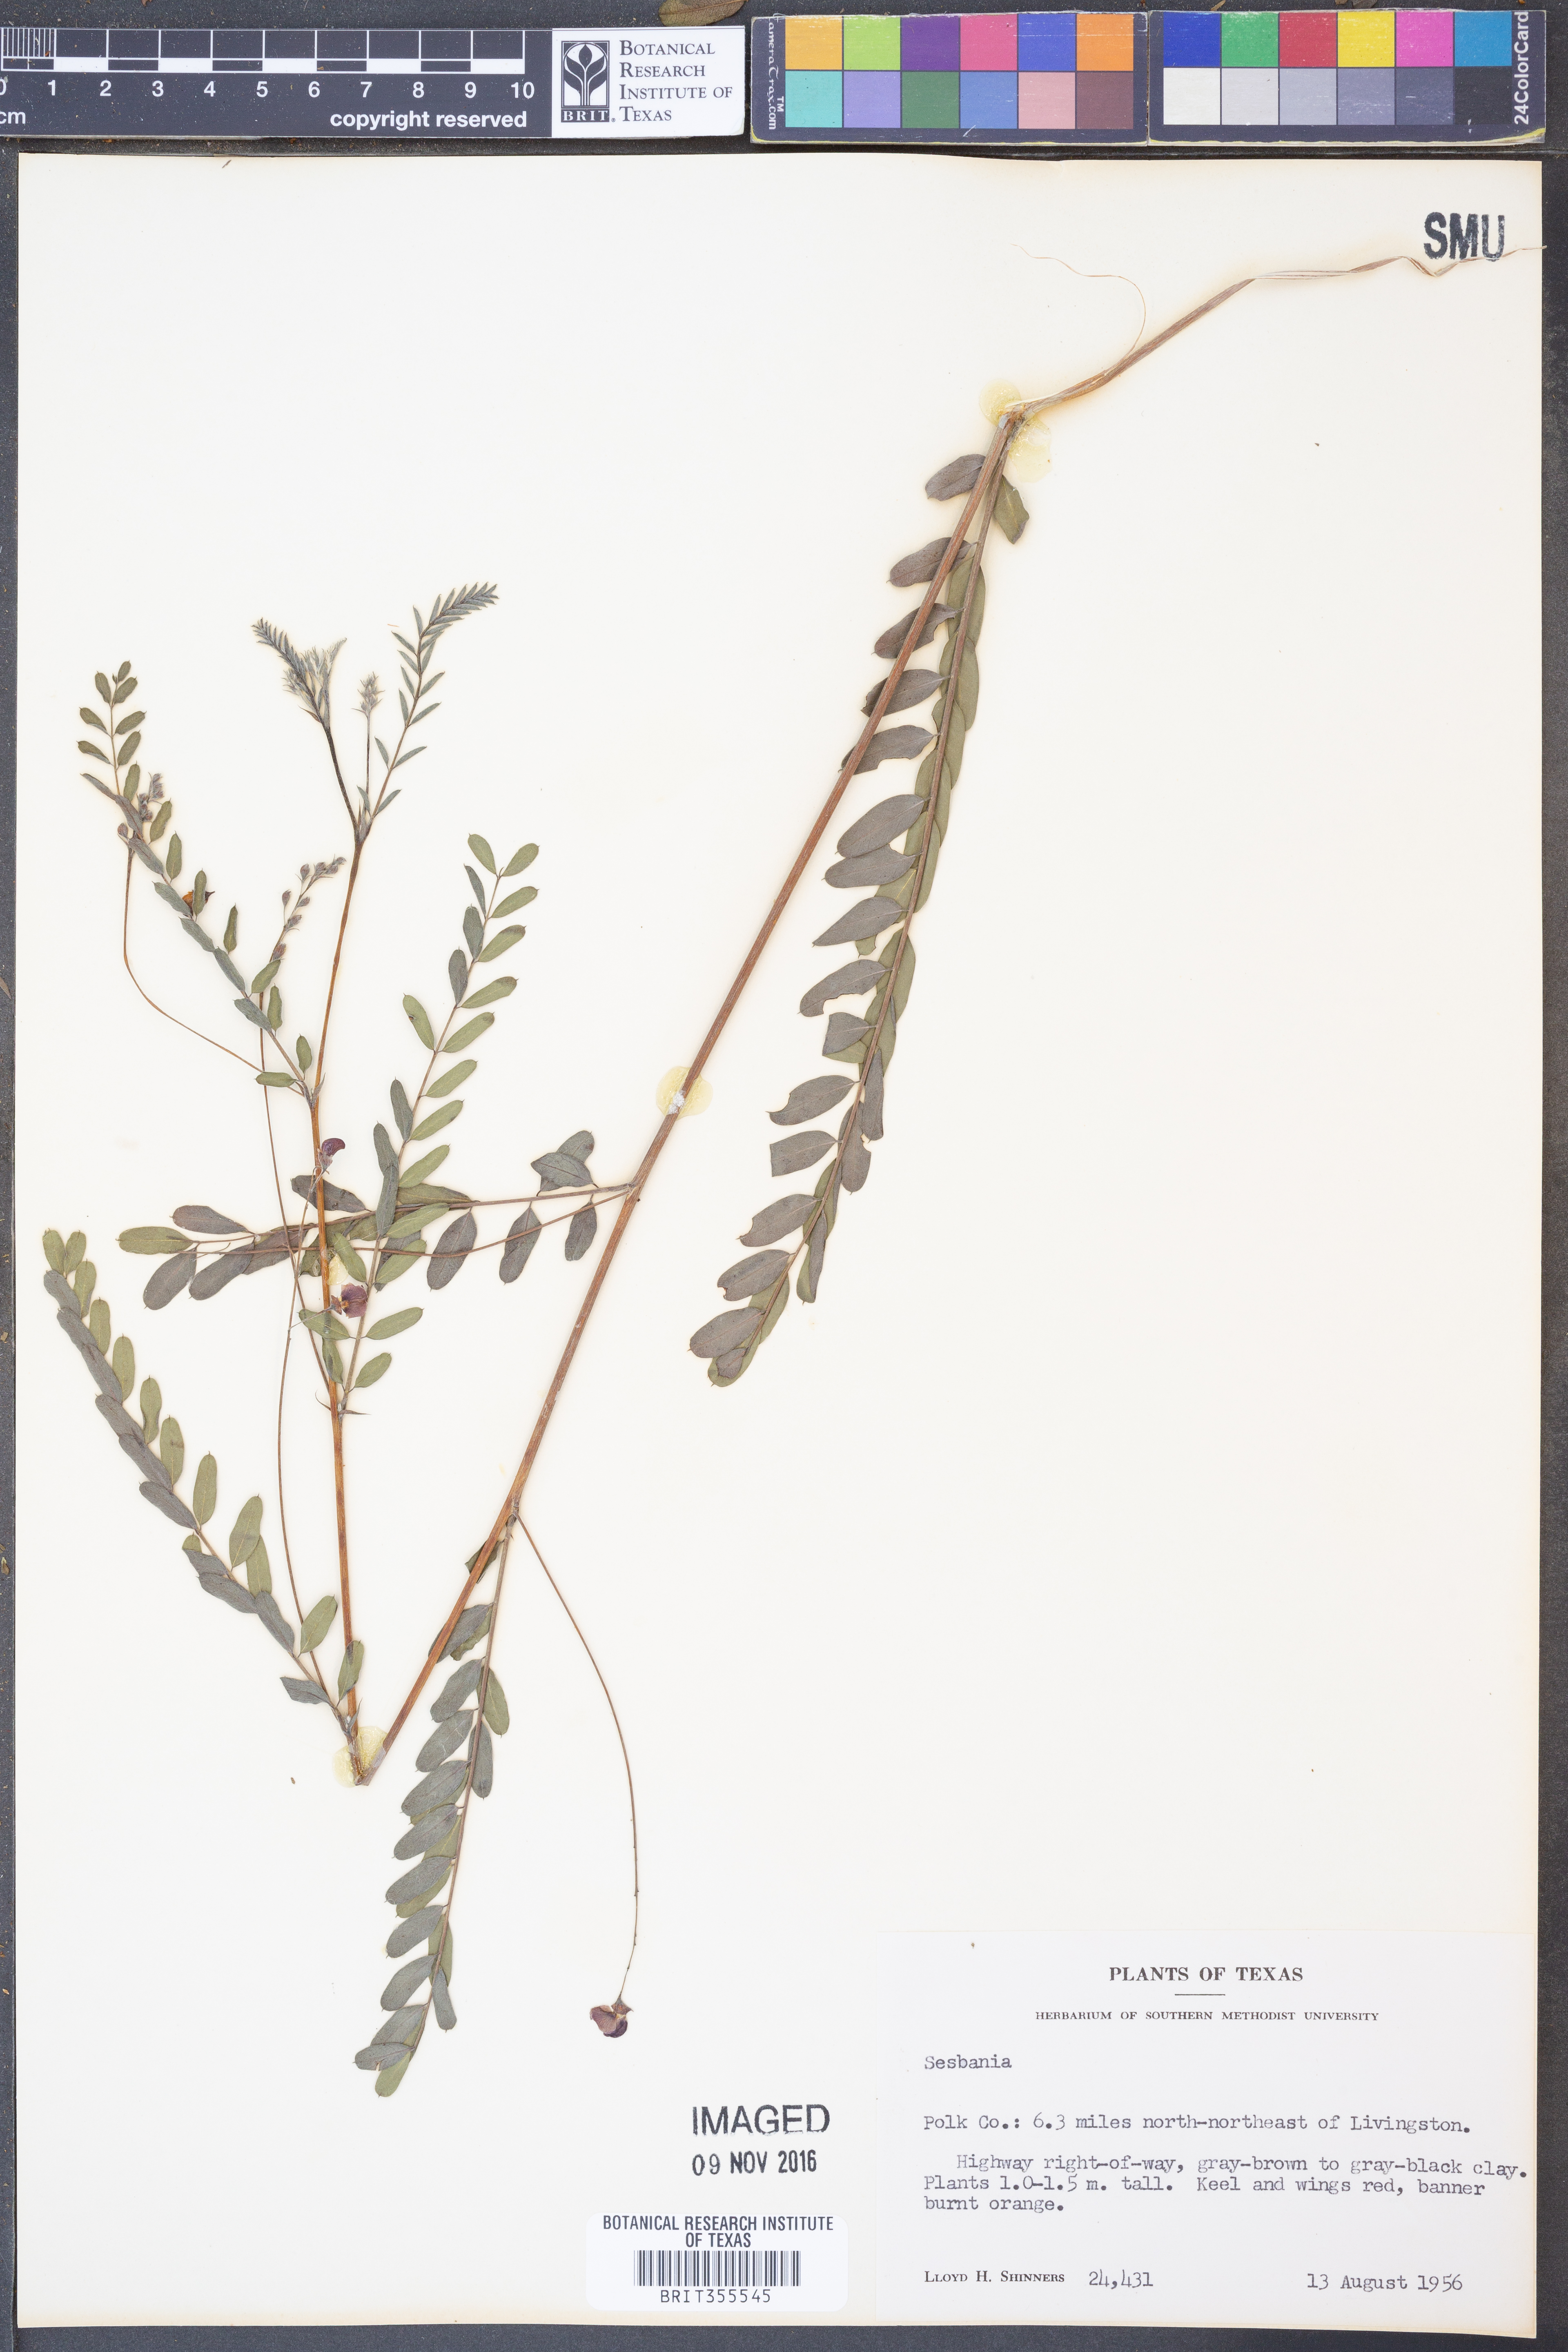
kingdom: Plantae
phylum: Tracheophyta
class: Magnoliopsida
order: Fabales
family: Fabaceae
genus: Sesbania
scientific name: Sesbania
